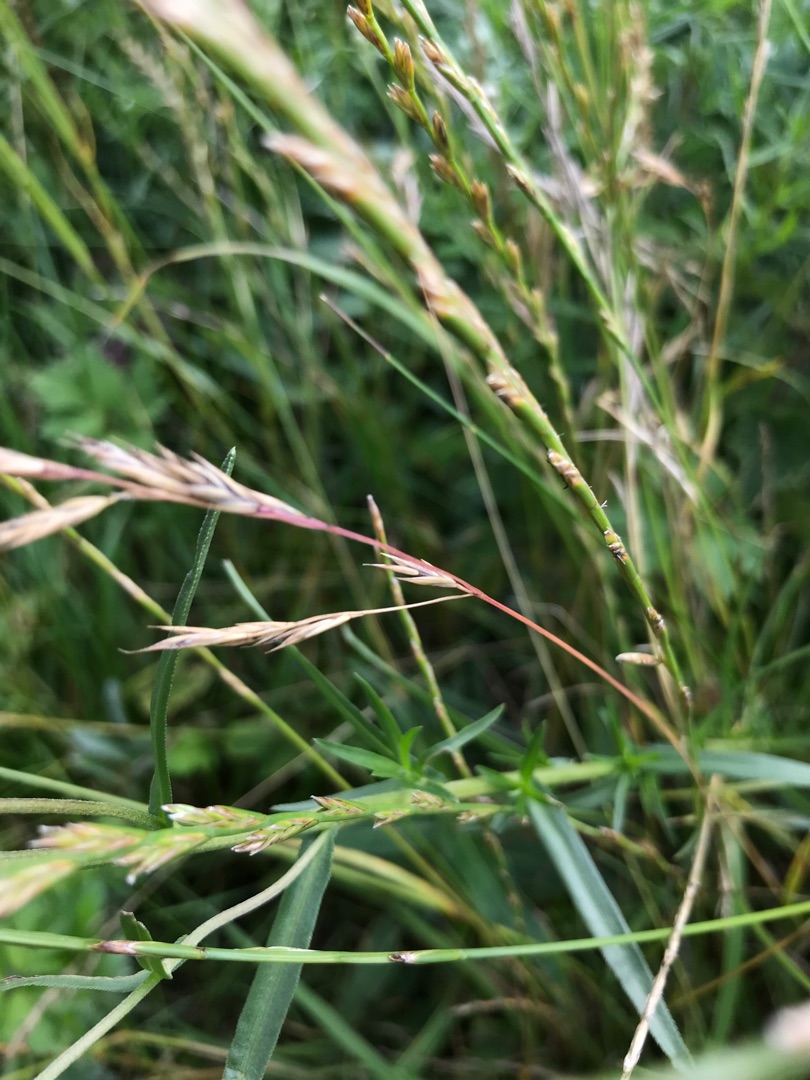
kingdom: Plantae
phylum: Tracheophyta
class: Magnoliopsida
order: Asterales
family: Asteraceae
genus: Achillea
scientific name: Achillea ptarmica
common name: Nyse-røllike
